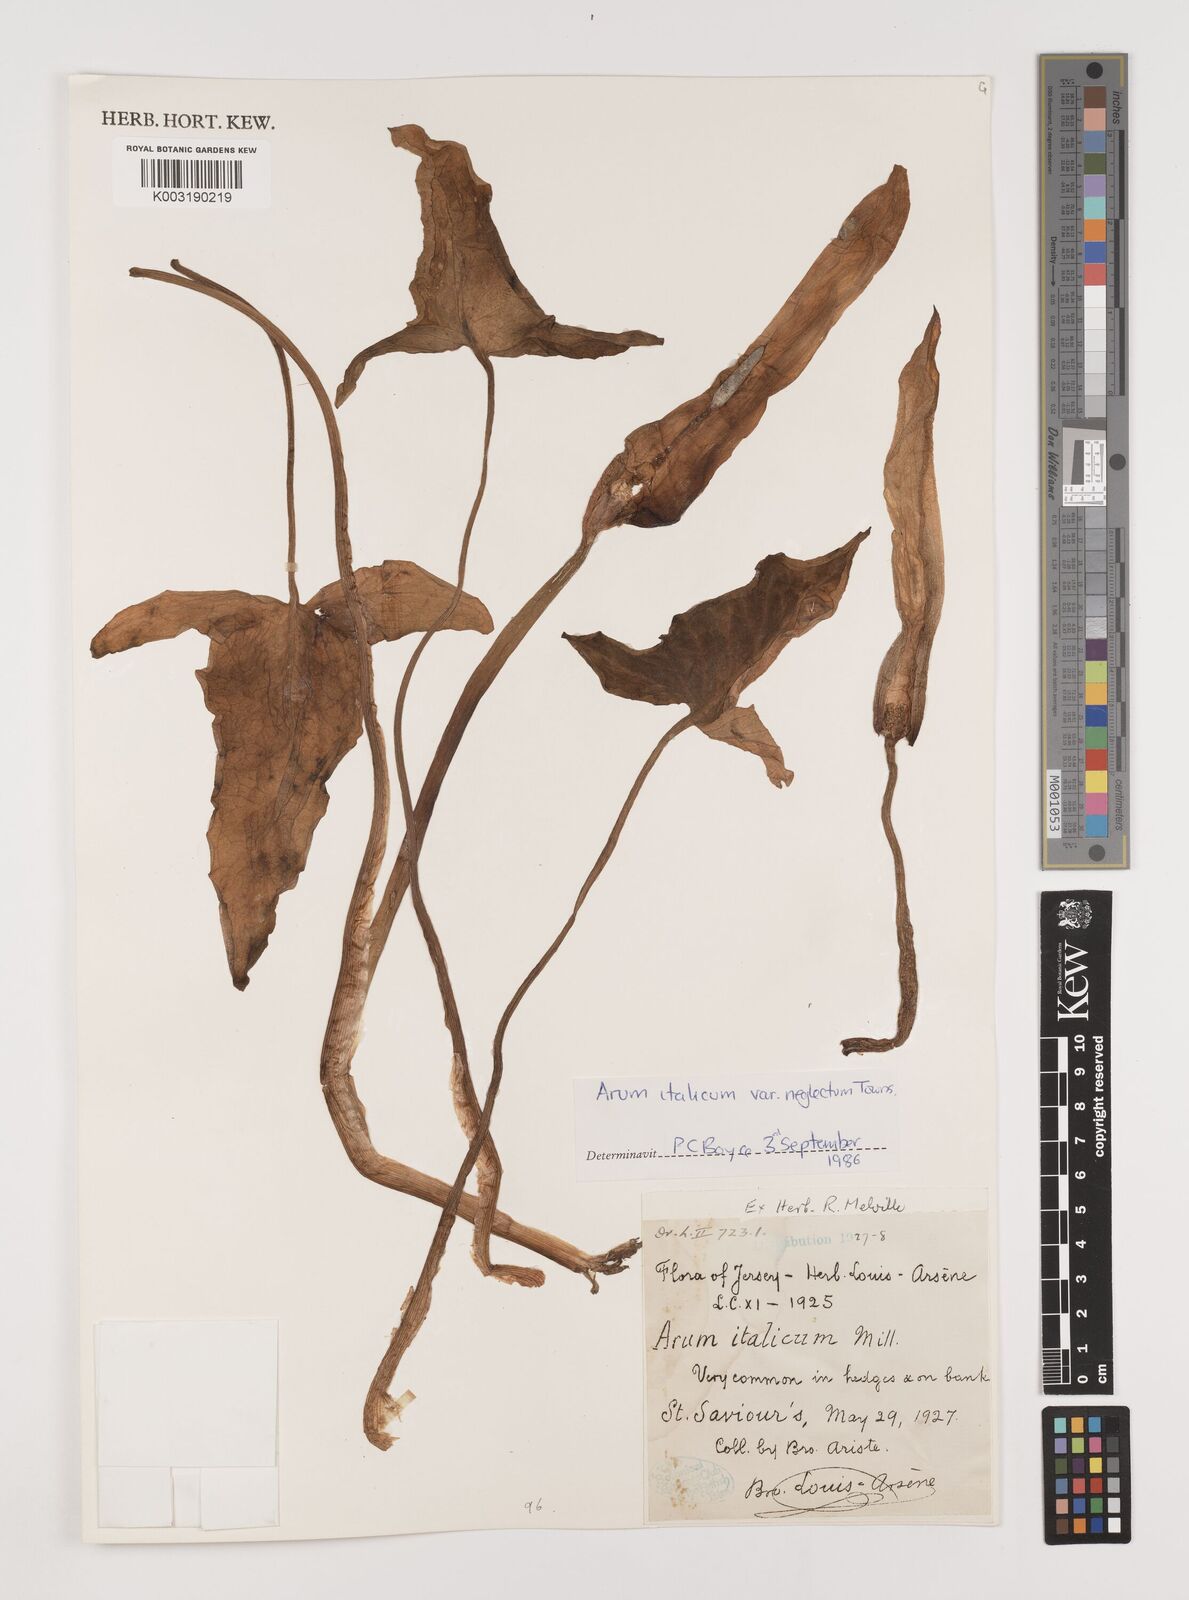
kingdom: Plantae
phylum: Tracheophyta
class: Liliopsida
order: Alismatales
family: Araceae
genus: Arum
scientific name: Arum italicum
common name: Italian lords-and-ladies
